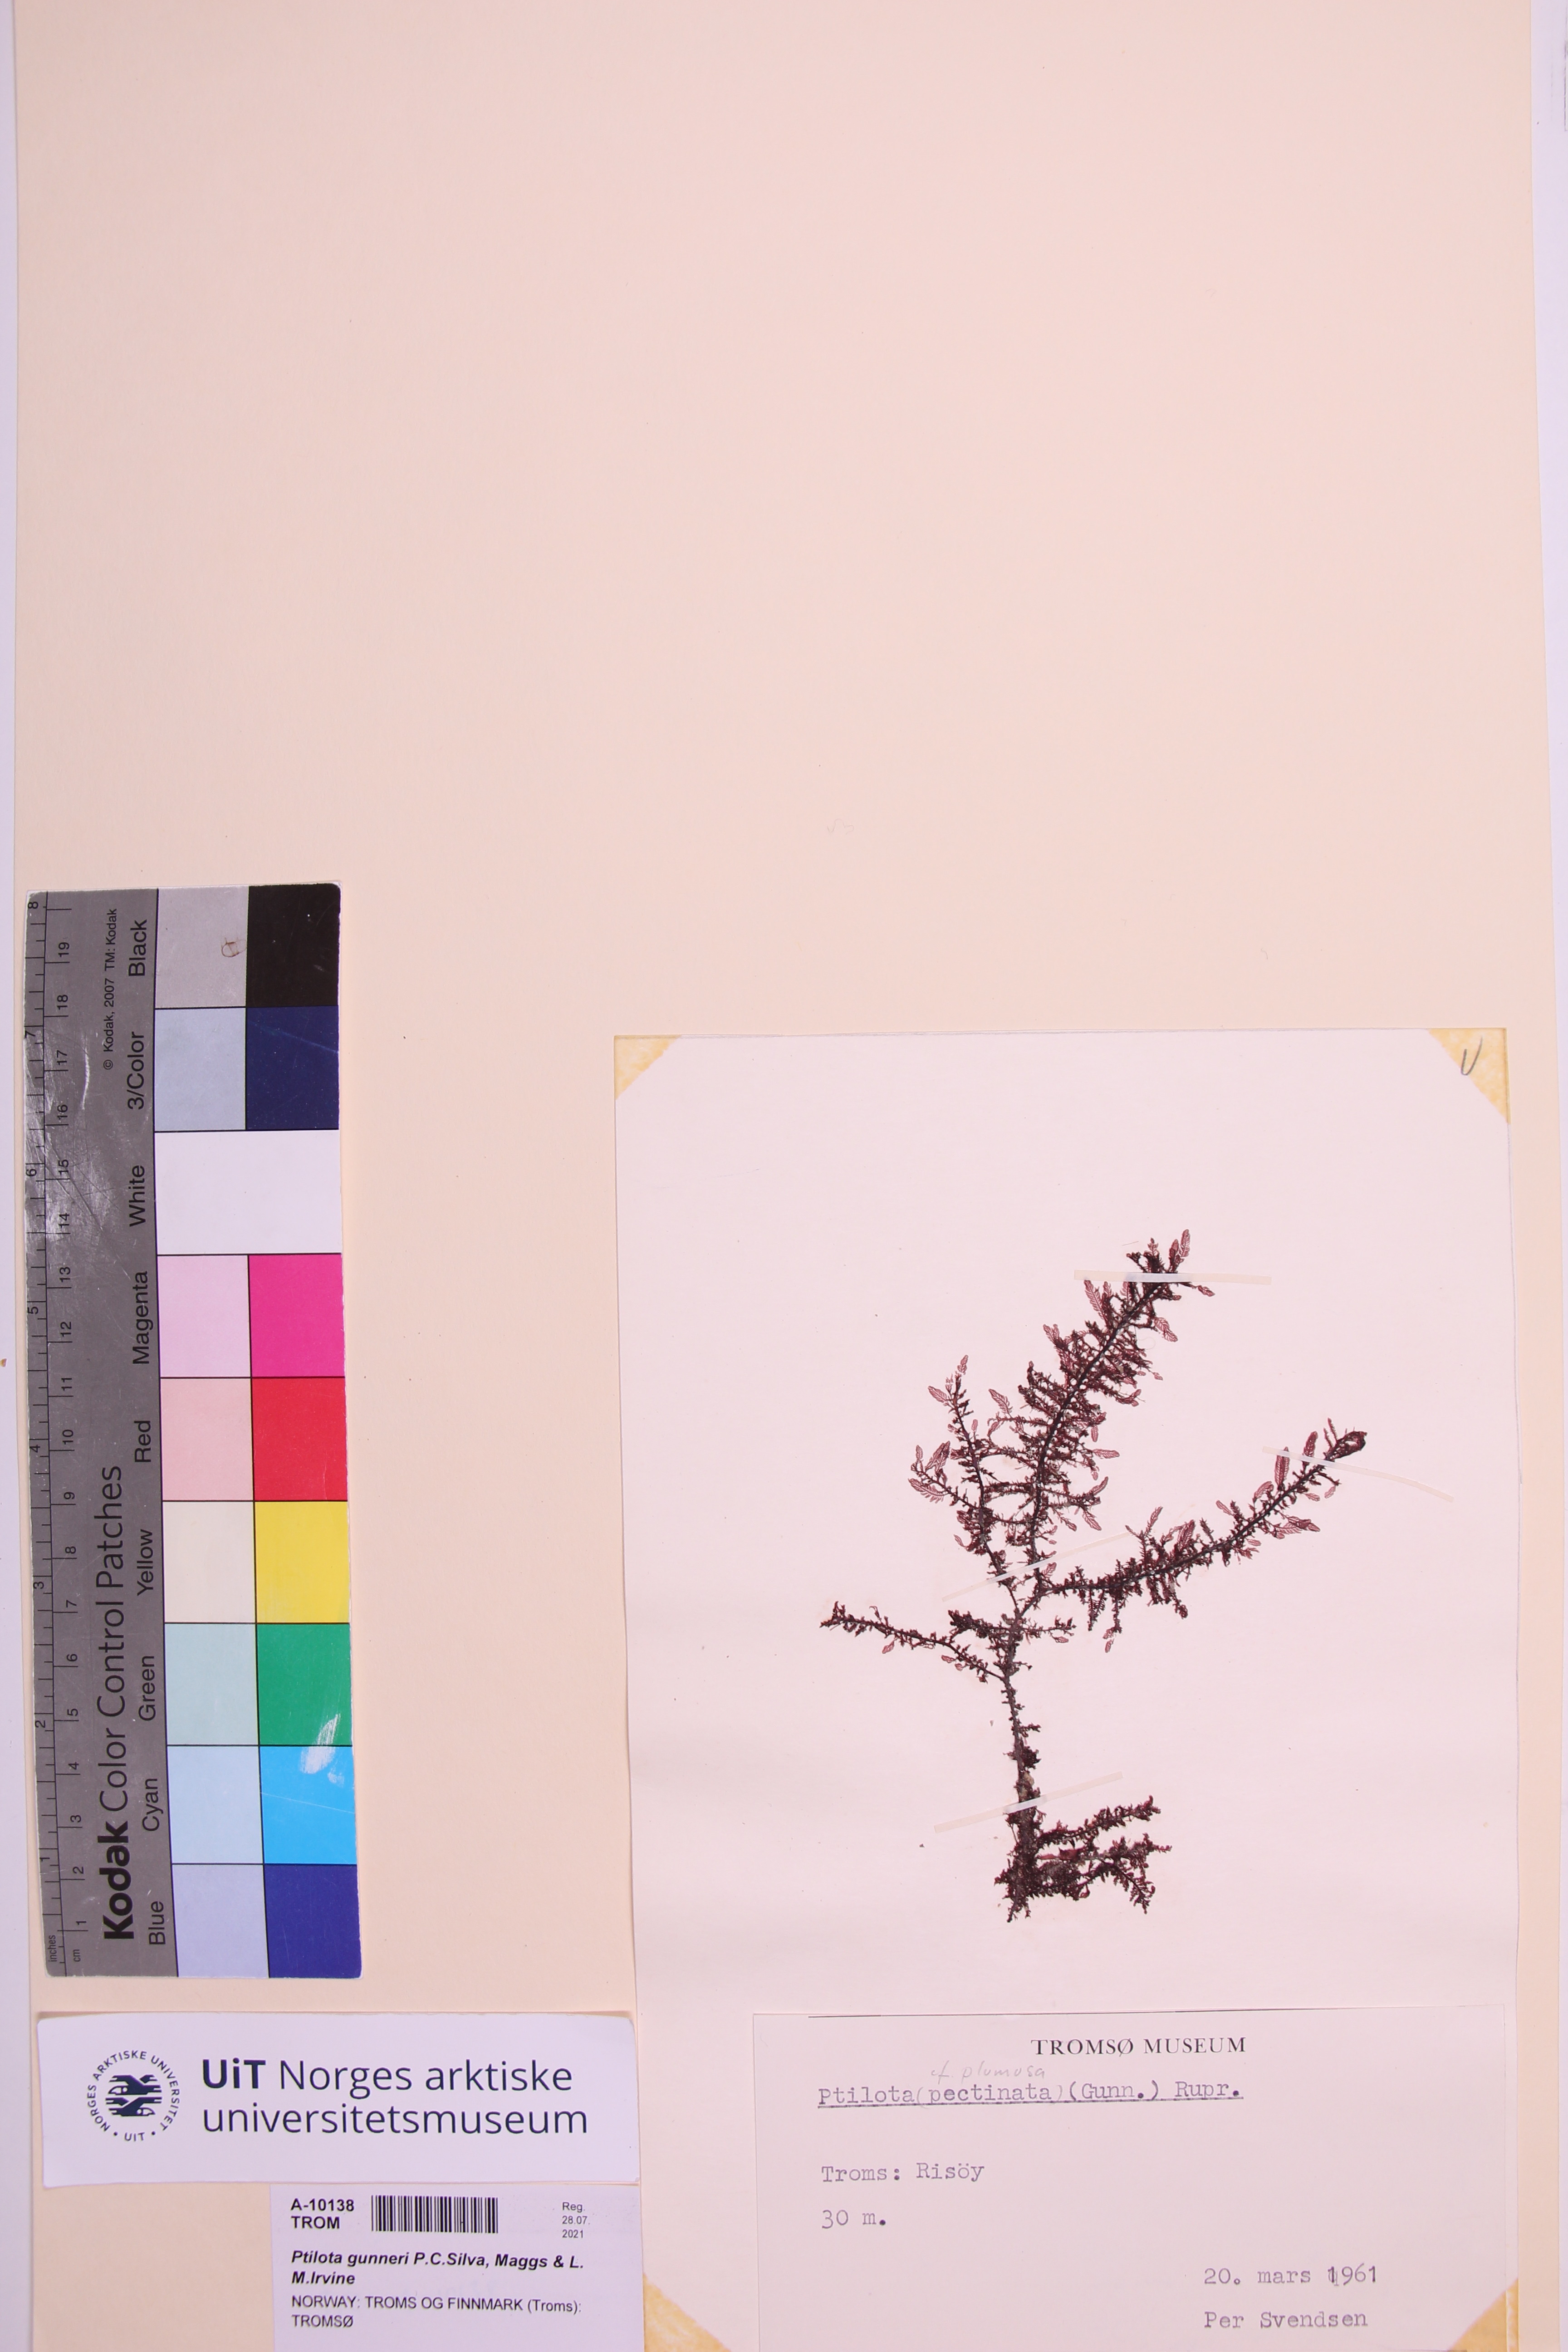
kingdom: Plantae
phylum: Rhodophyta
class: Florideophyceae
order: Ceramiales
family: Wrangeliaceae
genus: Ptilota
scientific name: Ptilota gunneri
